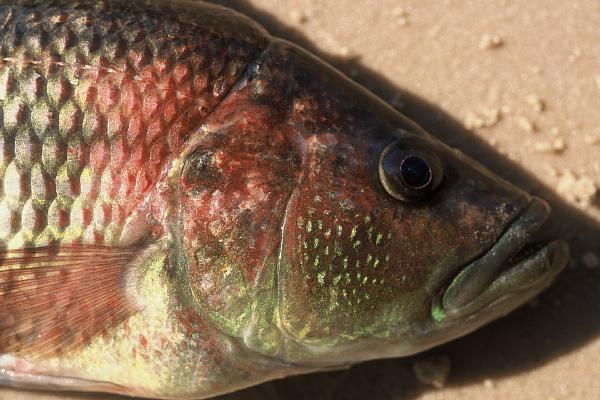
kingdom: Animalia
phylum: Chordata
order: Perciformes
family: Cichlidae
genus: Serranochromis
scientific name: Serranochromis macrocephalus
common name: Purpleface largemouth
